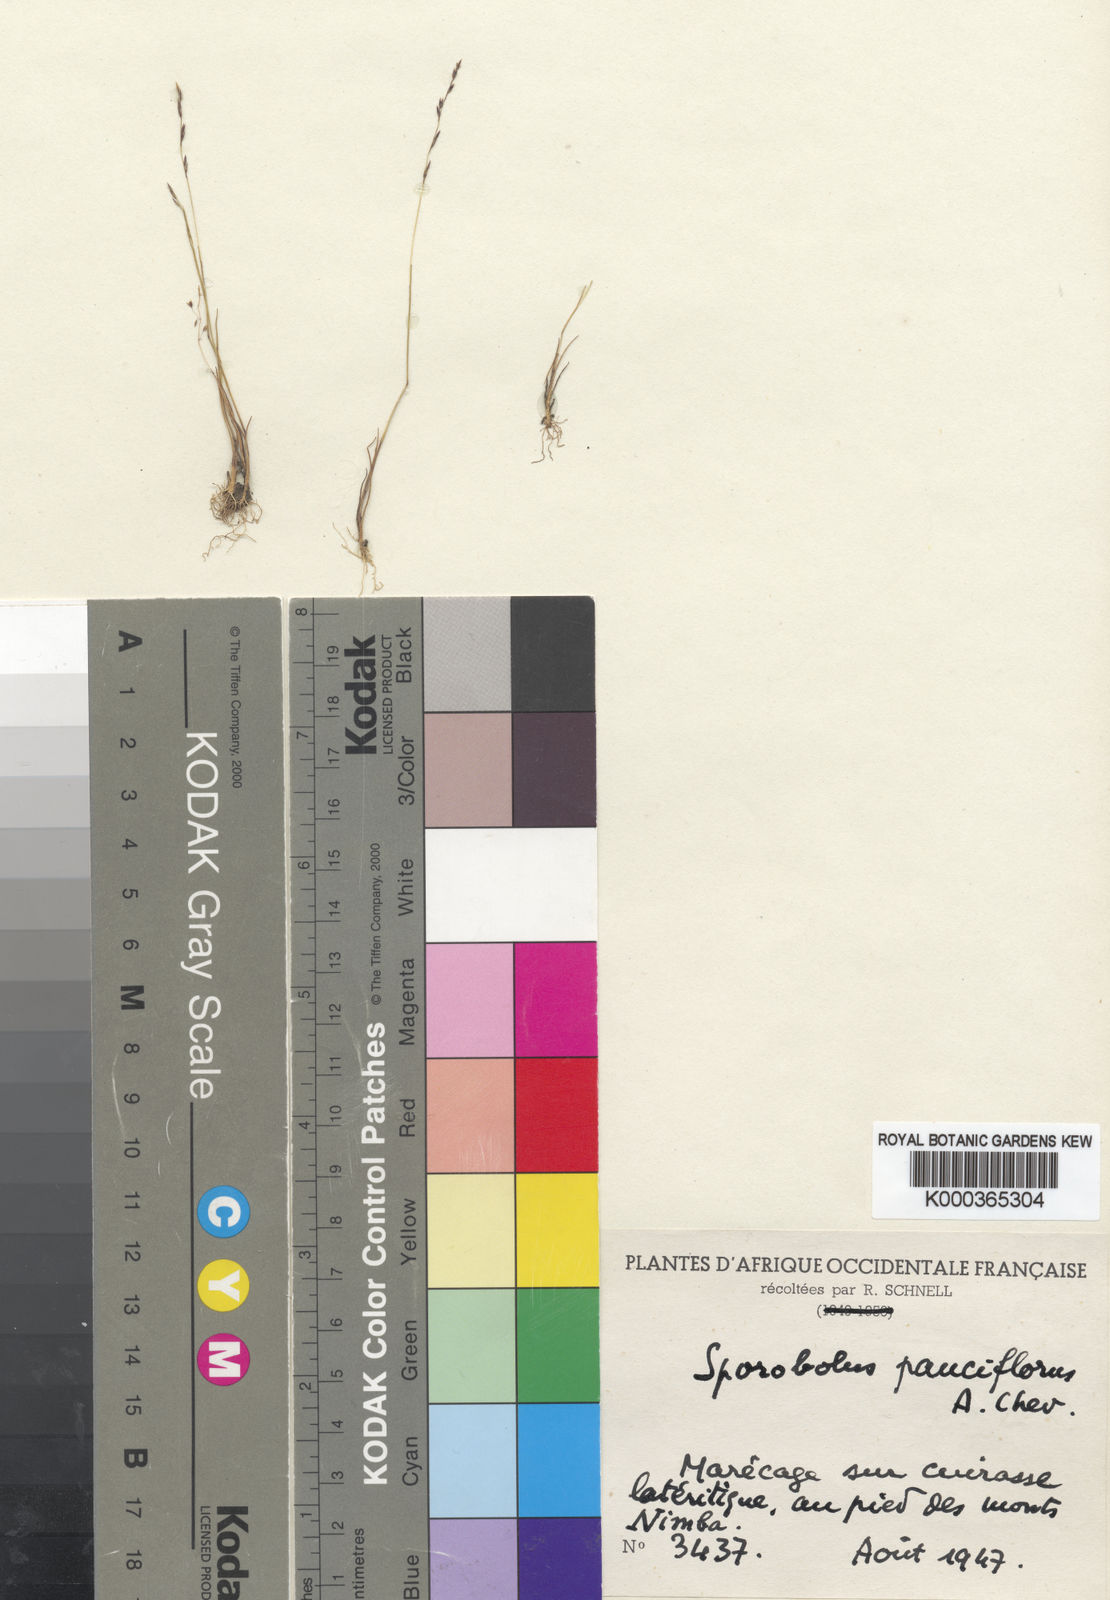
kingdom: Plantae
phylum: Tracheophyta
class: Liliopsida
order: Poales
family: Poaceae
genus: Sporobolus
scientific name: Sporobolus pauciflorus
